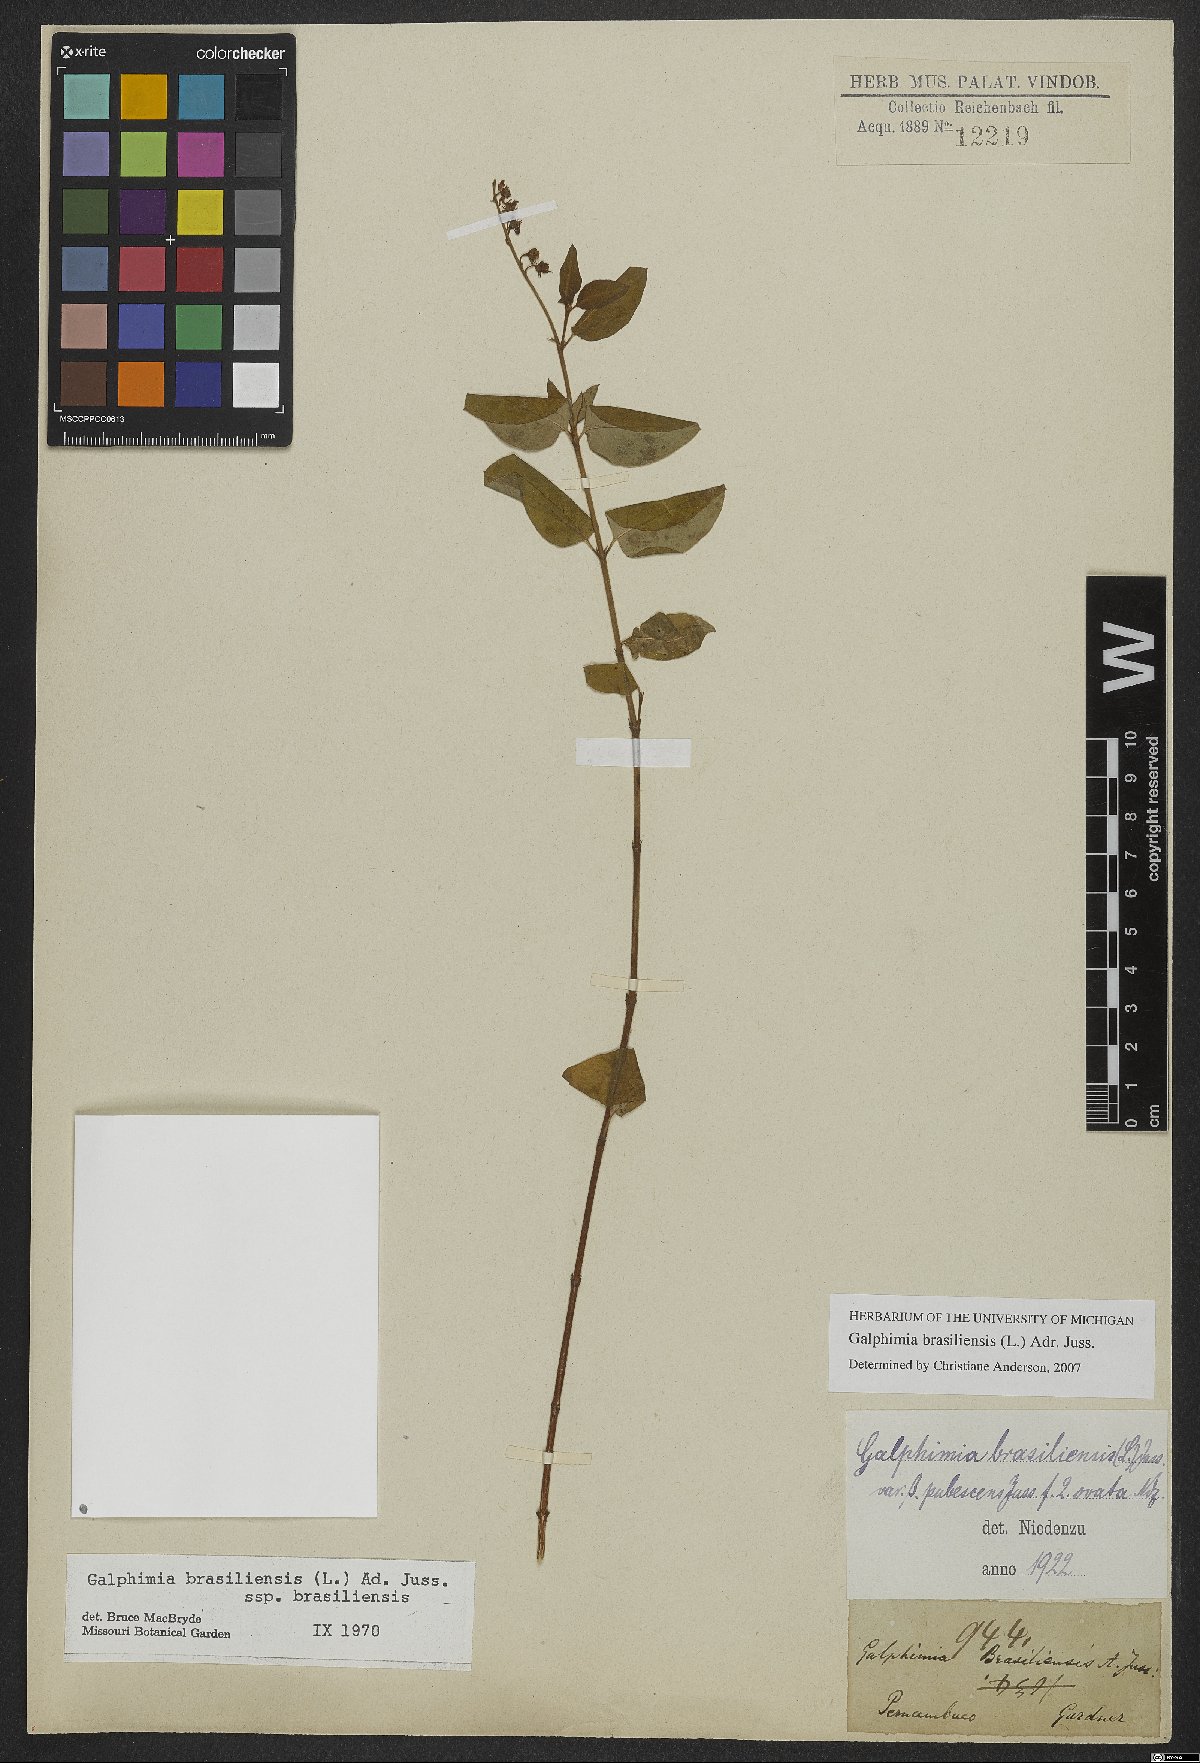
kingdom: Plantae
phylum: Tracheophyta
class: Magnoliopsida
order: Malpighiales
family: Malpighiaceae
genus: Galphimia
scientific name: Galphimia brasiliensis
